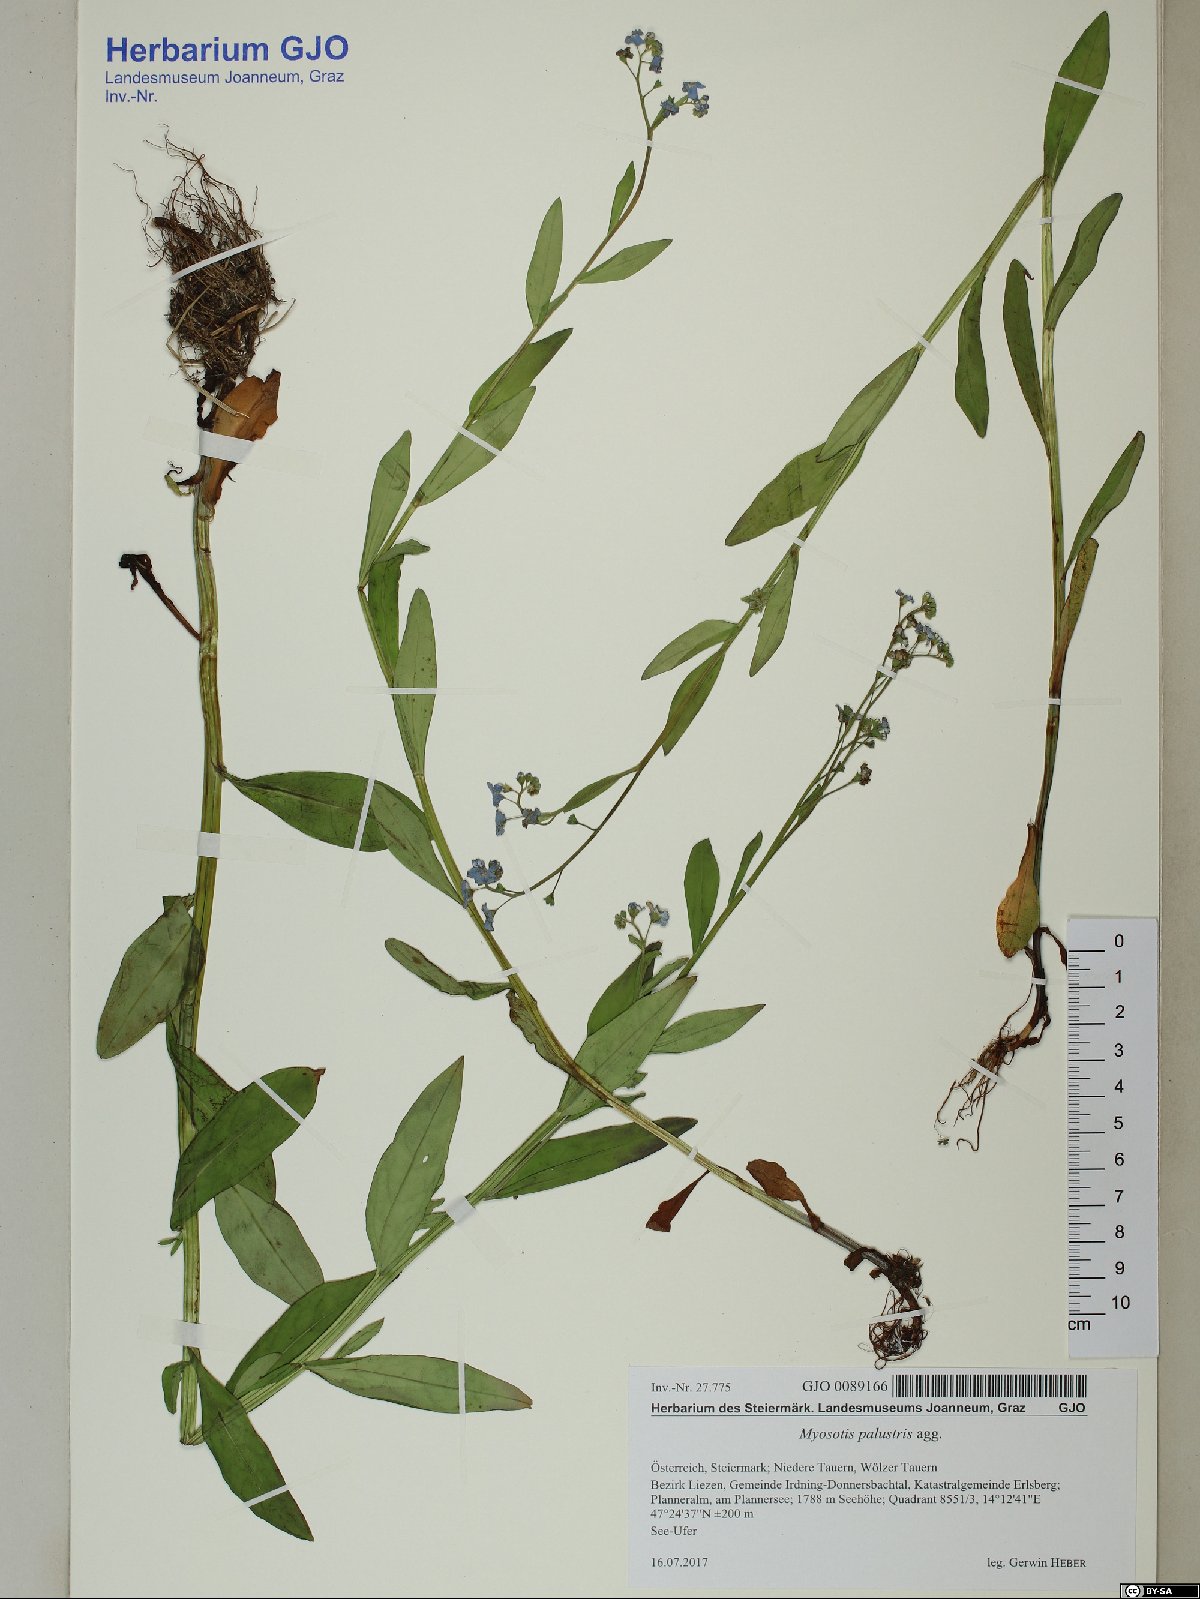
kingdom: Plantae
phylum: Tracheophyta
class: Magnoliopsida
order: Boraginales
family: Boraginaceae
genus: Myosotis
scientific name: Myosotis scorpioides
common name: Water forget-me-not
